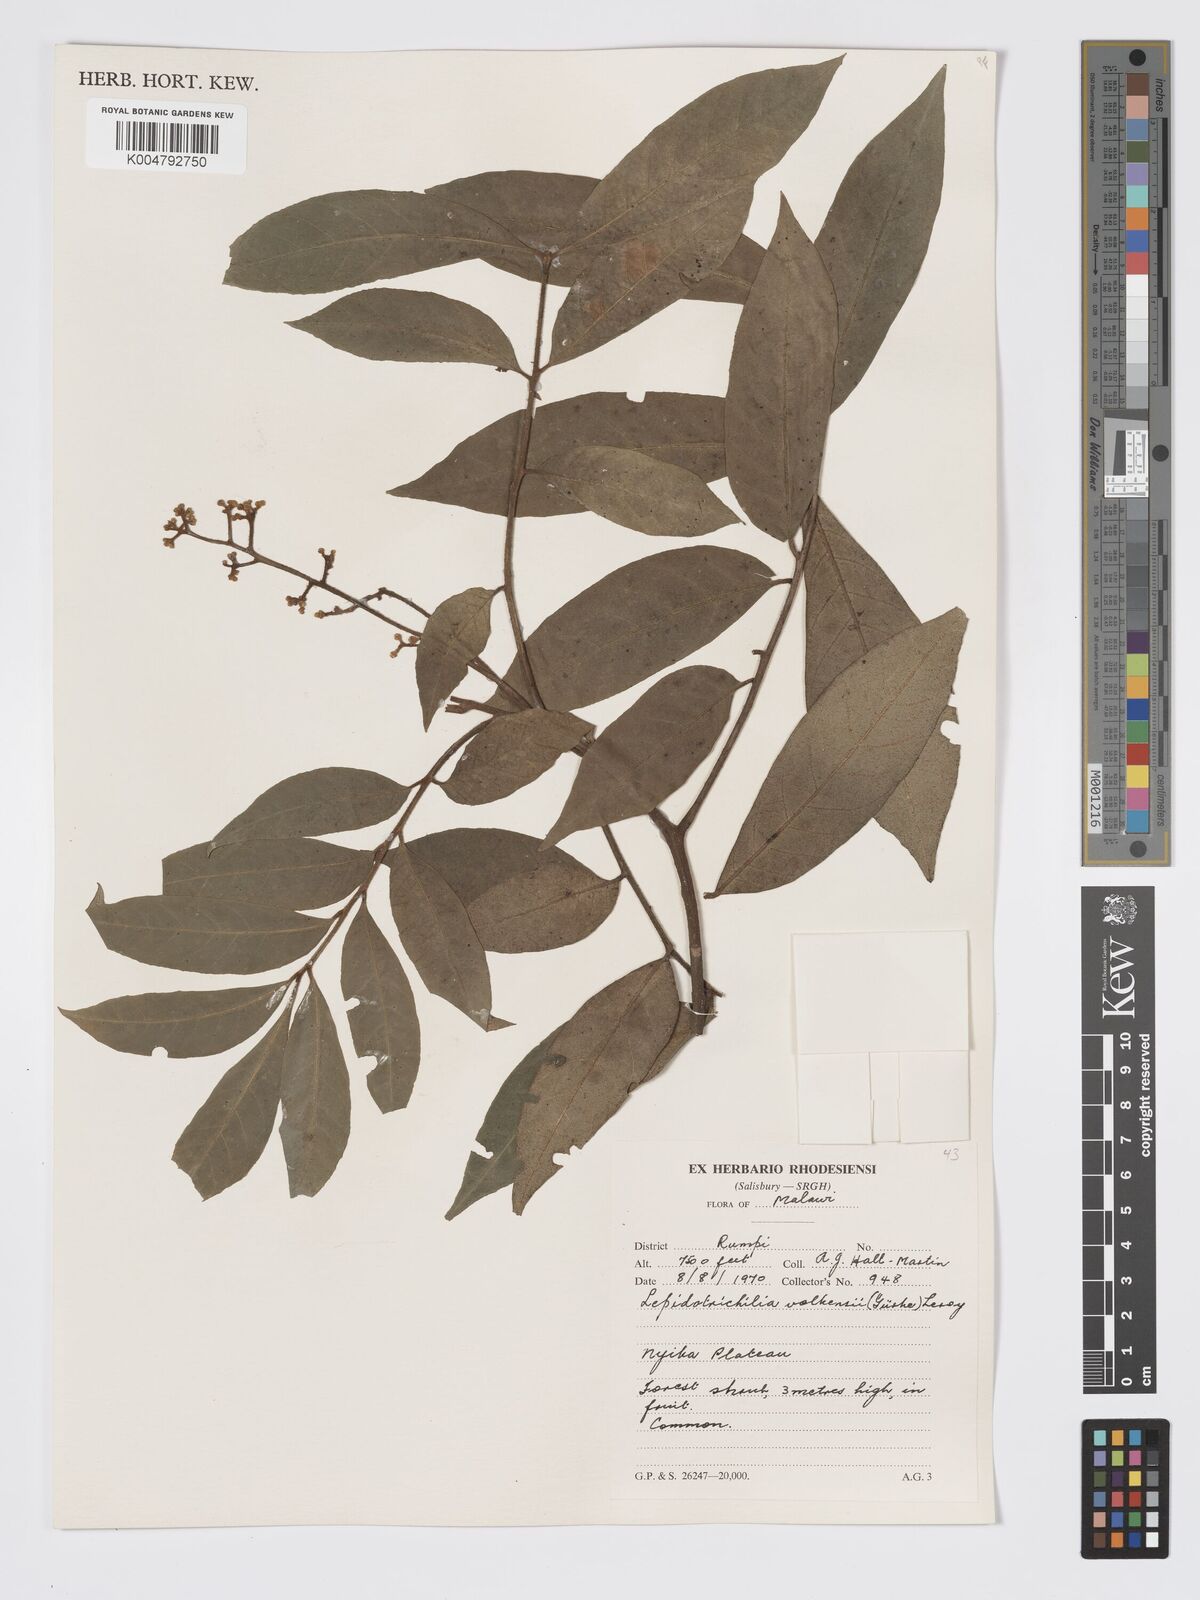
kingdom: Plantae
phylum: Tracheophyta
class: Magnoliopsida
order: Sapindales
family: Meliaceae
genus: Lepidotrichilia
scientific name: Lepidotrichilia volkensii
